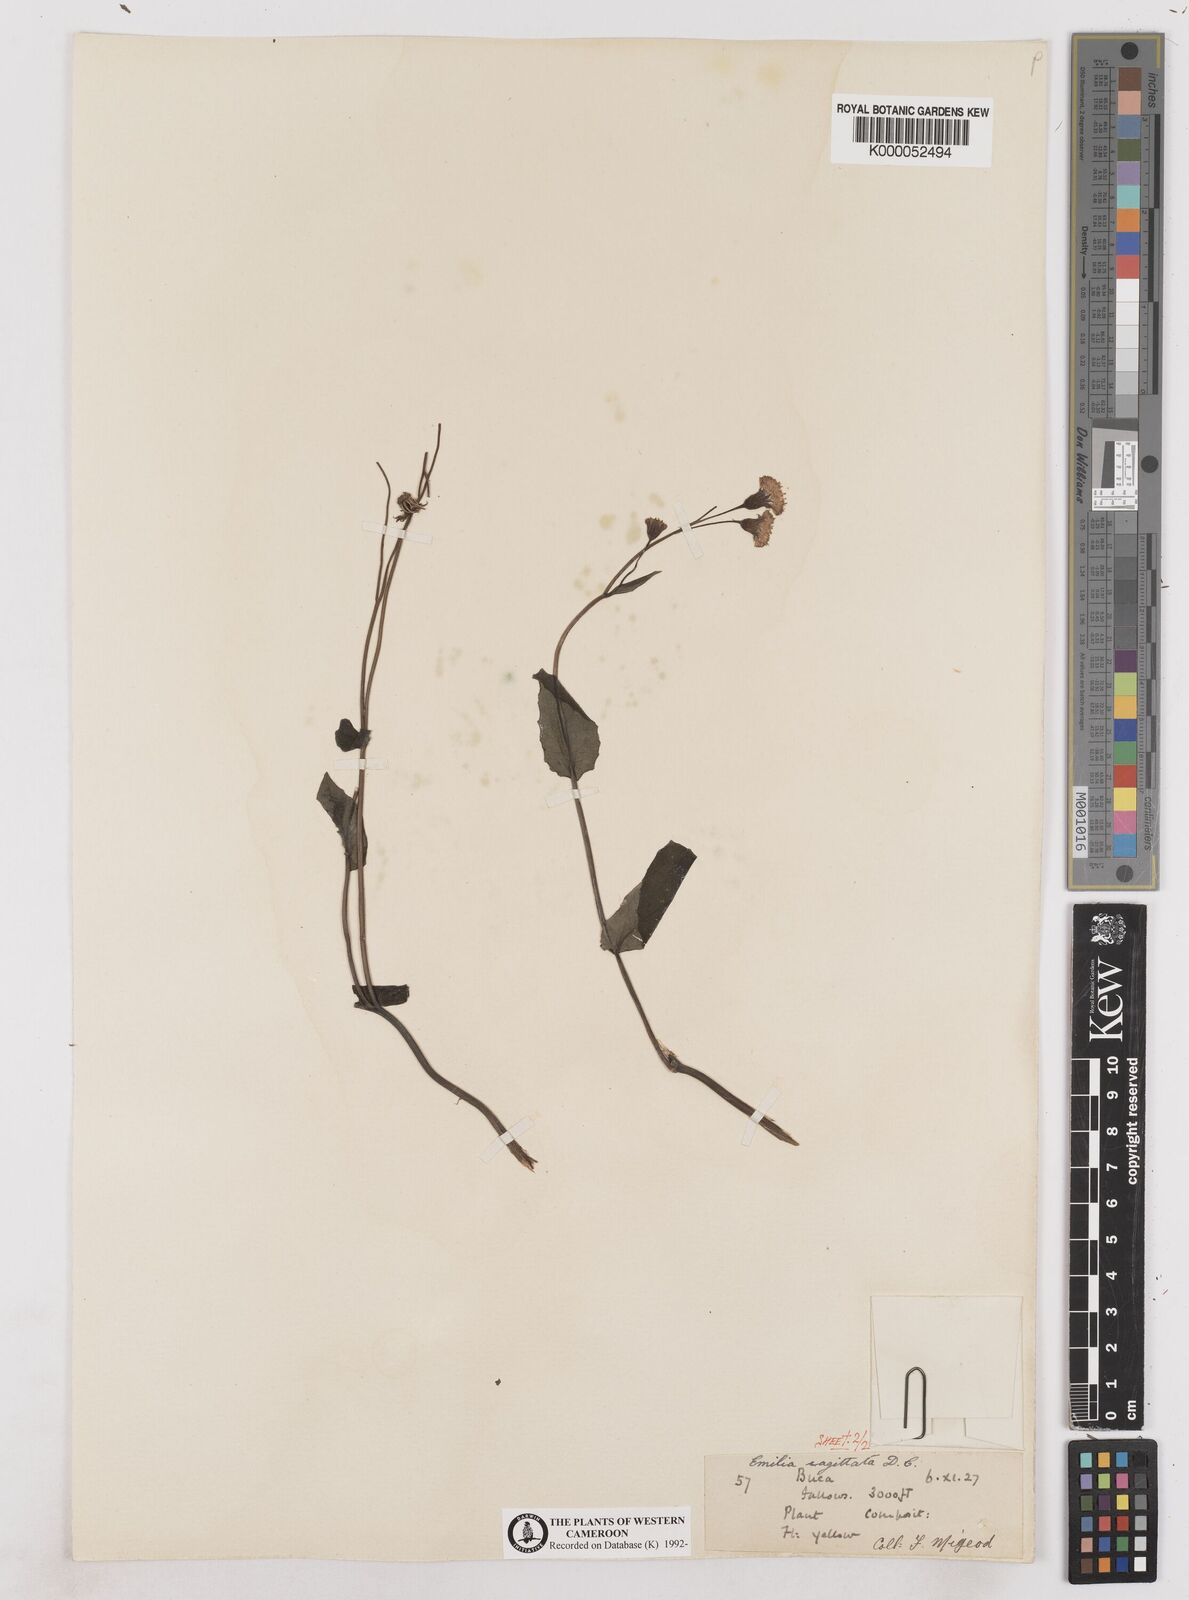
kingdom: Plantae
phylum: Tracheophyta
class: Magnoliopsida
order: Asterales
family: Asteraceae
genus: Emilia
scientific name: Emilia
